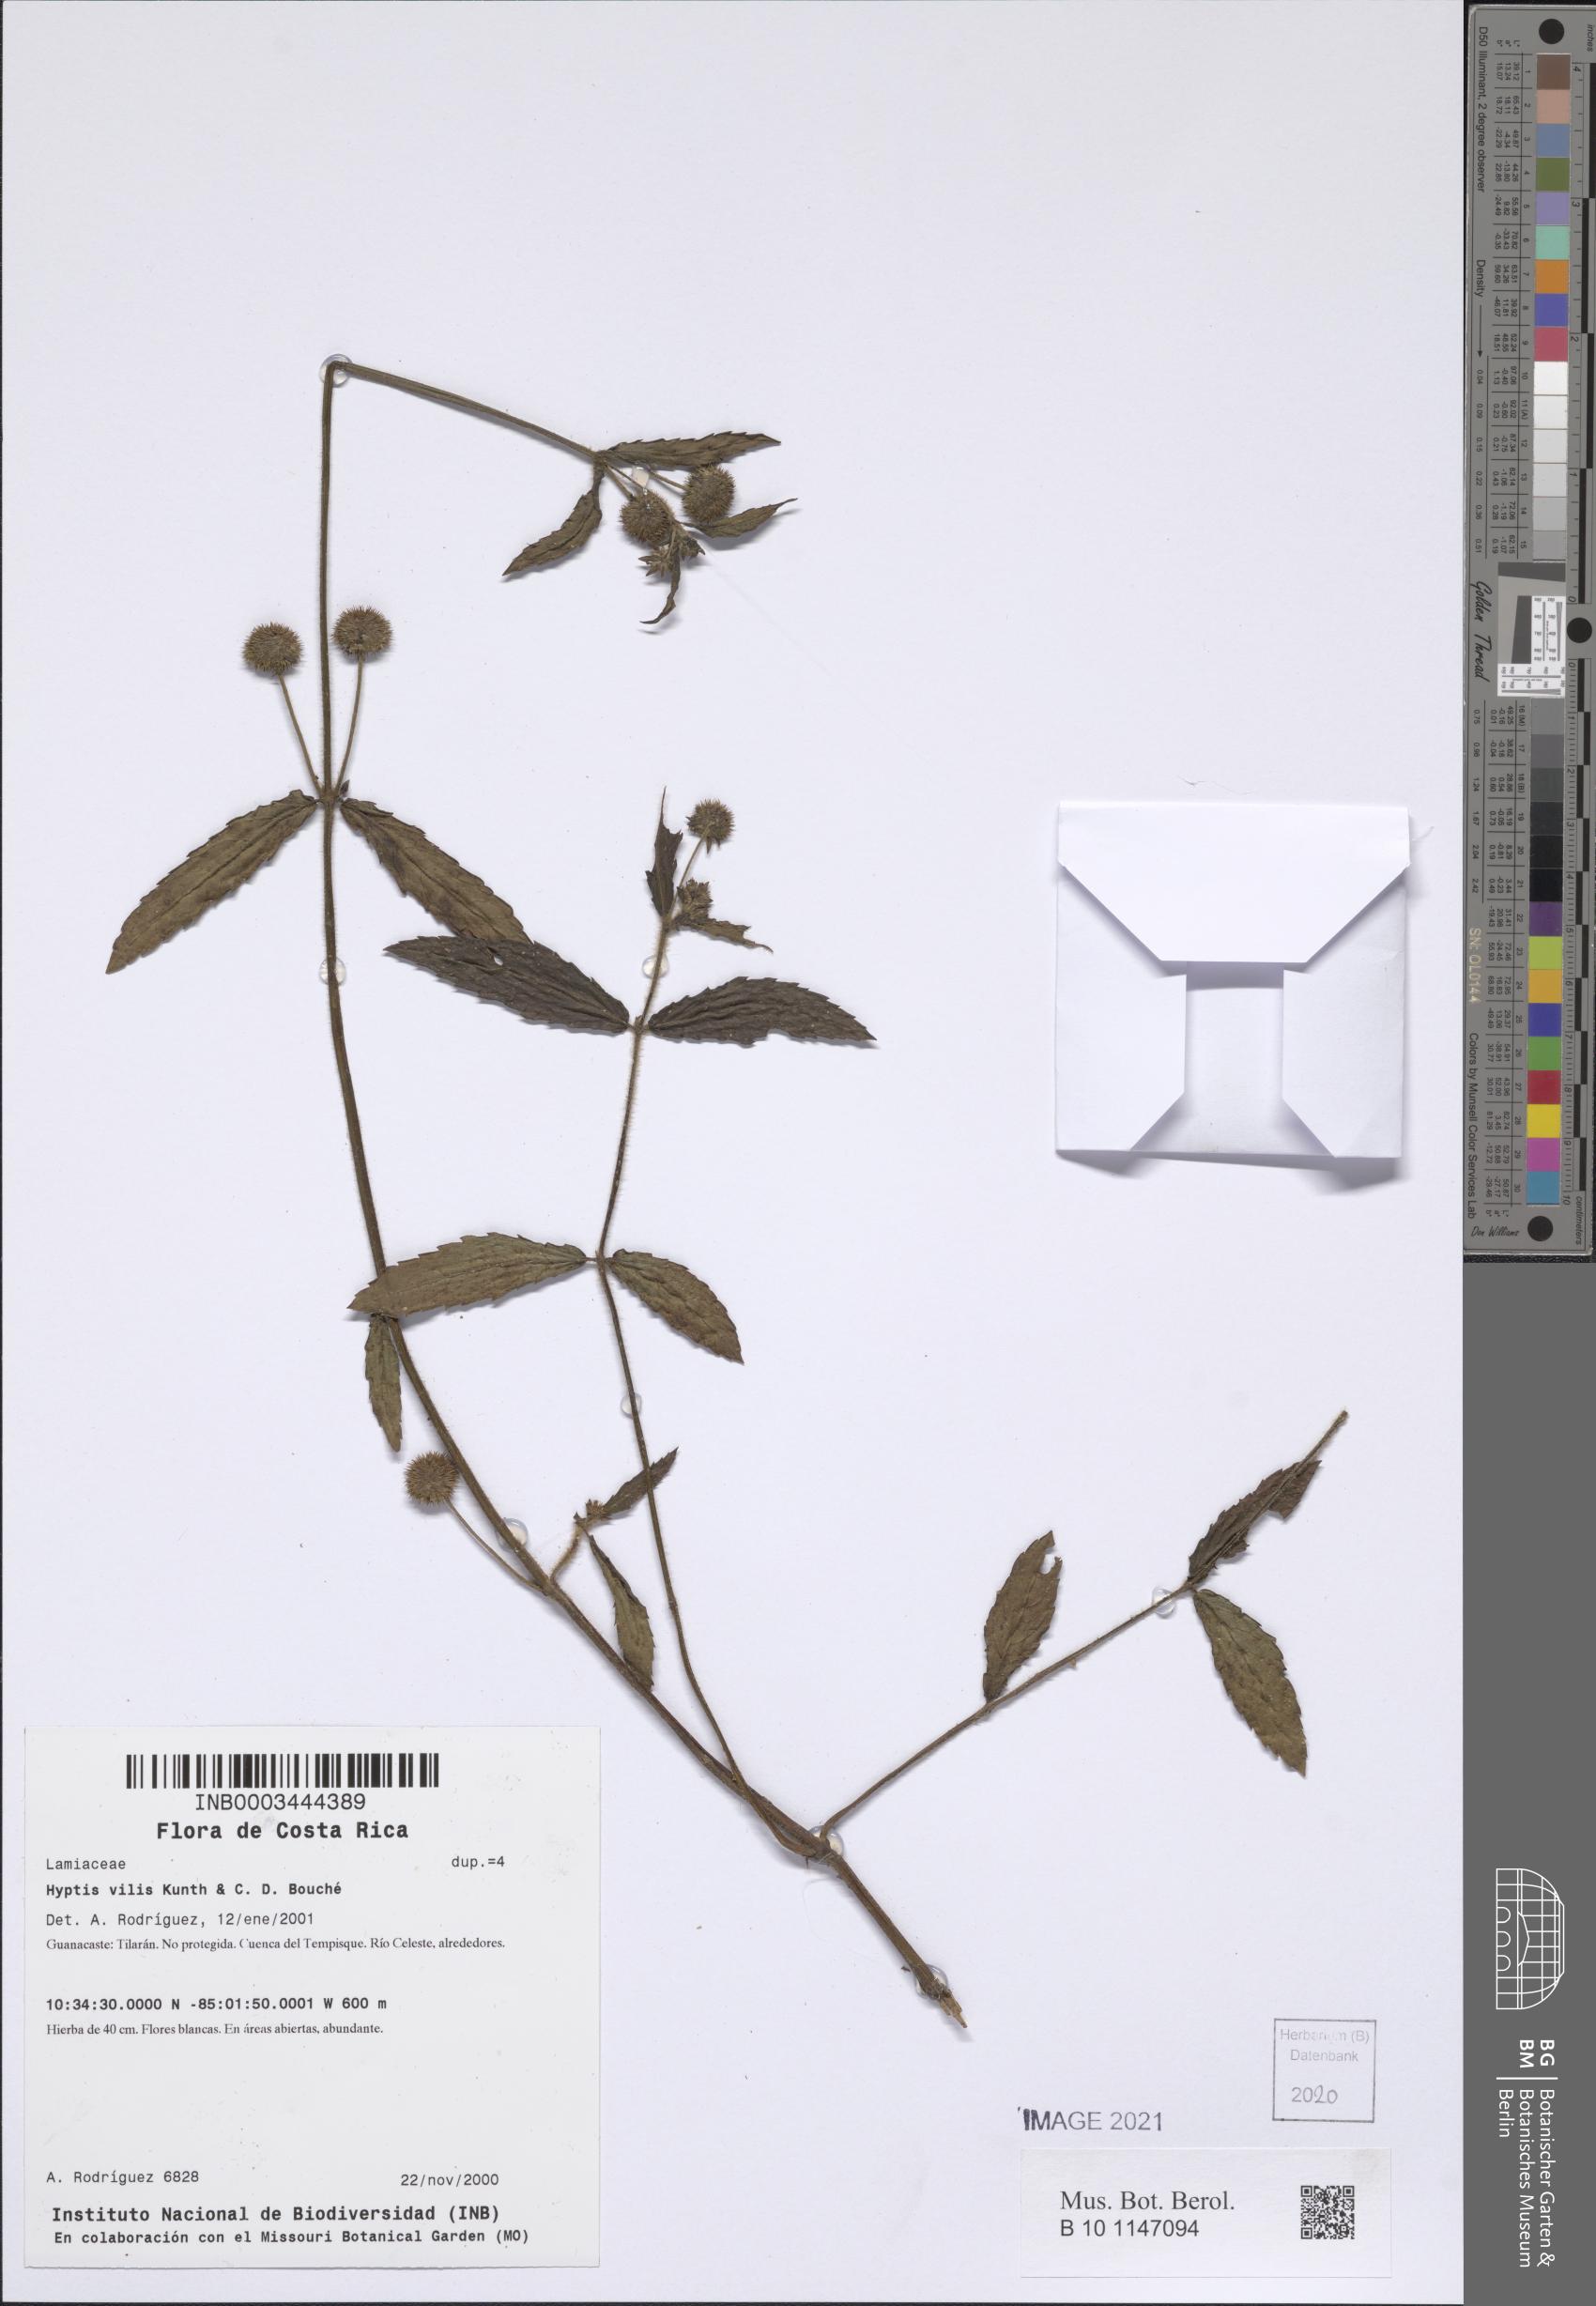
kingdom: Plantae
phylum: Tracheophyta
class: Magnoliopsida
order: Lamiales
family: Lamiaceae
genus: Hyptis
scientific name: Hyptis vilis
